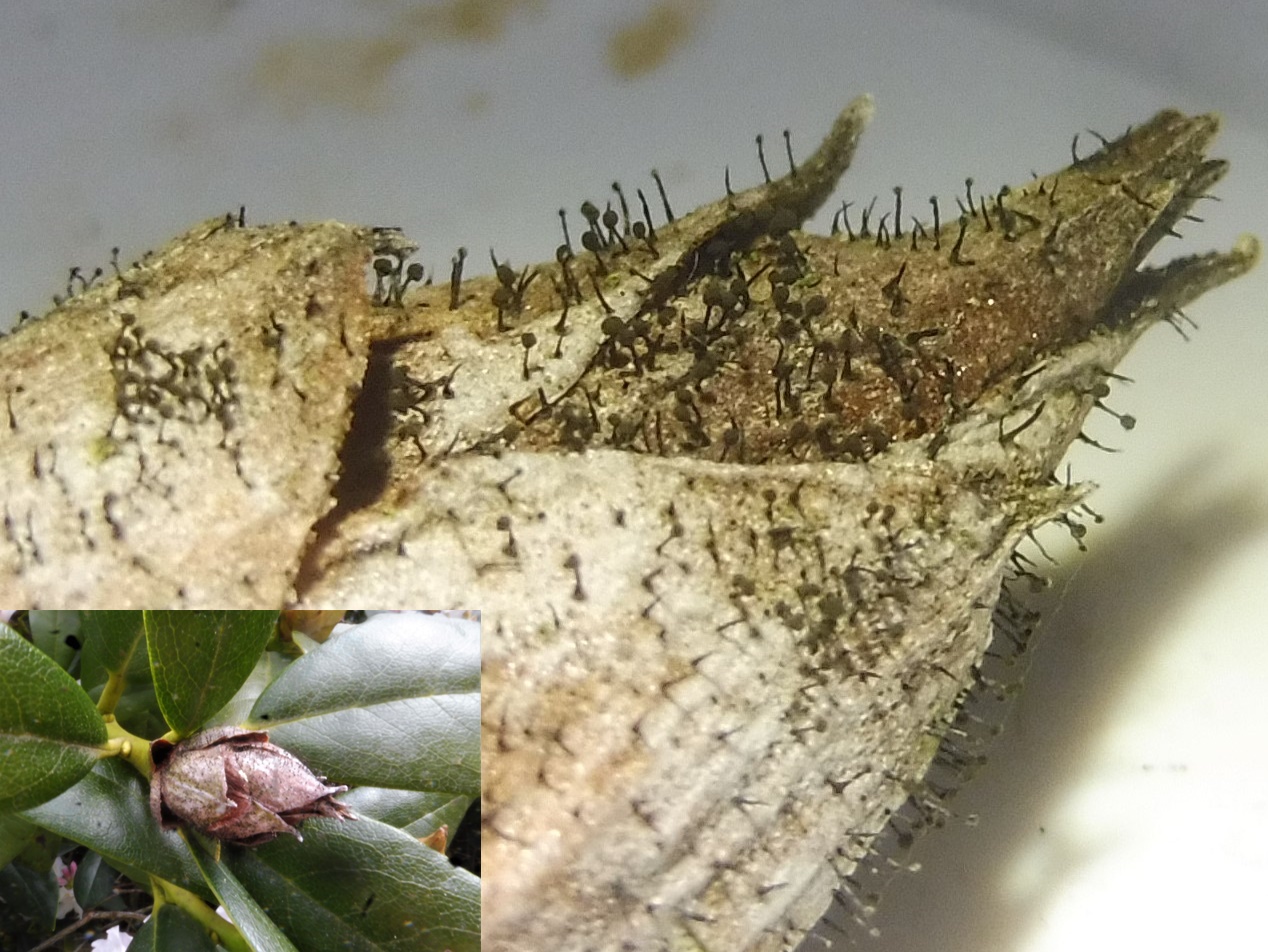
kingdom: Fungi
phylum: Ascomycota
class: Dothideomycetes
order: Pleosporales
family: Melanommataceae
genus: Seifertia
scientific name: Seifertia azaleae
